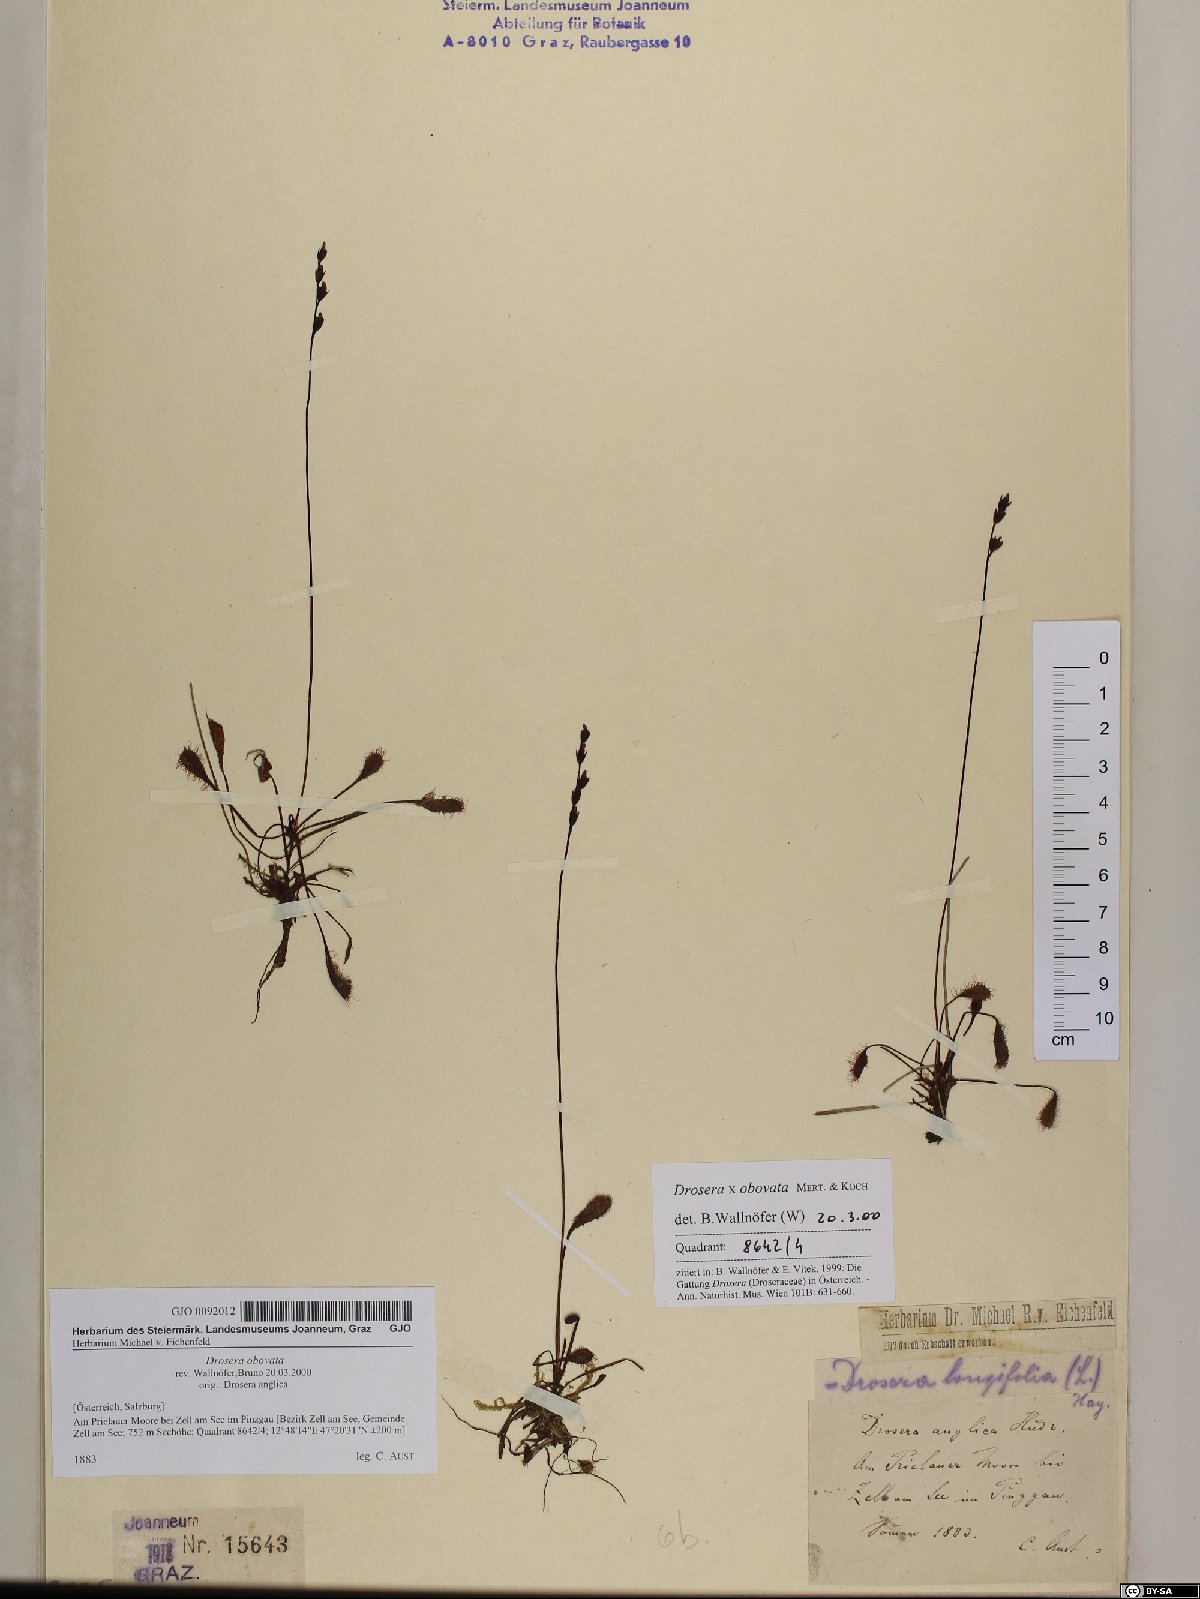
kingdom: Plantae
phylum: Tracheophyta
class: Magnoliopsida
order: Caryophyllales
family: Droseraceae
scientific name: Droseraceae
